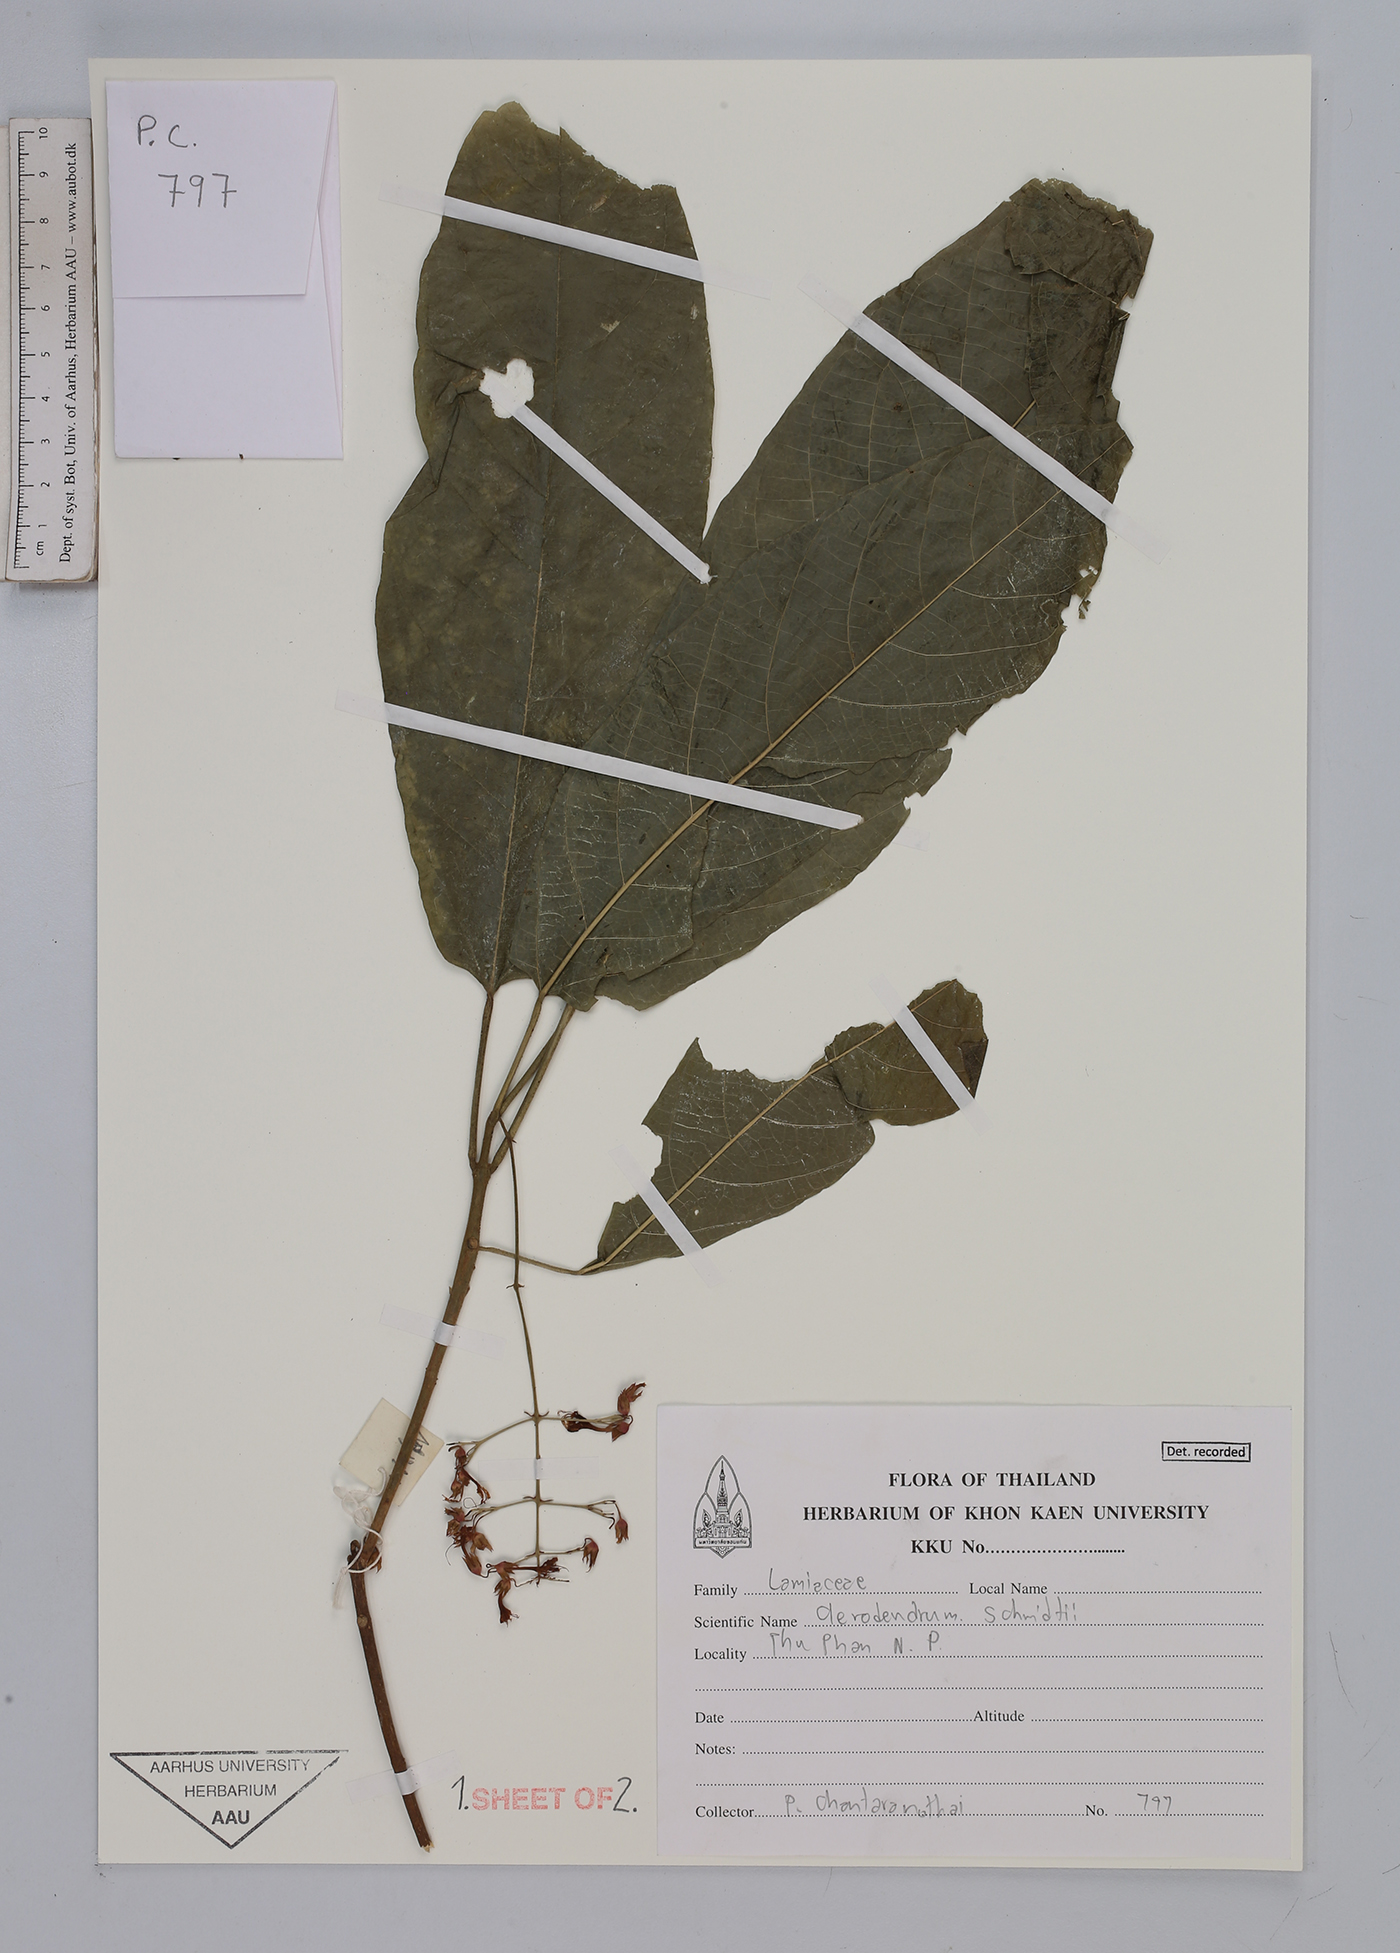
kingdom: Plantae
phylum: Tracheophyta
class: Magnoliopsida
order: Lamiales
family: Lamiaceae
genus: Clerodendrum
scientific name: Clerodendrum schmidtii
